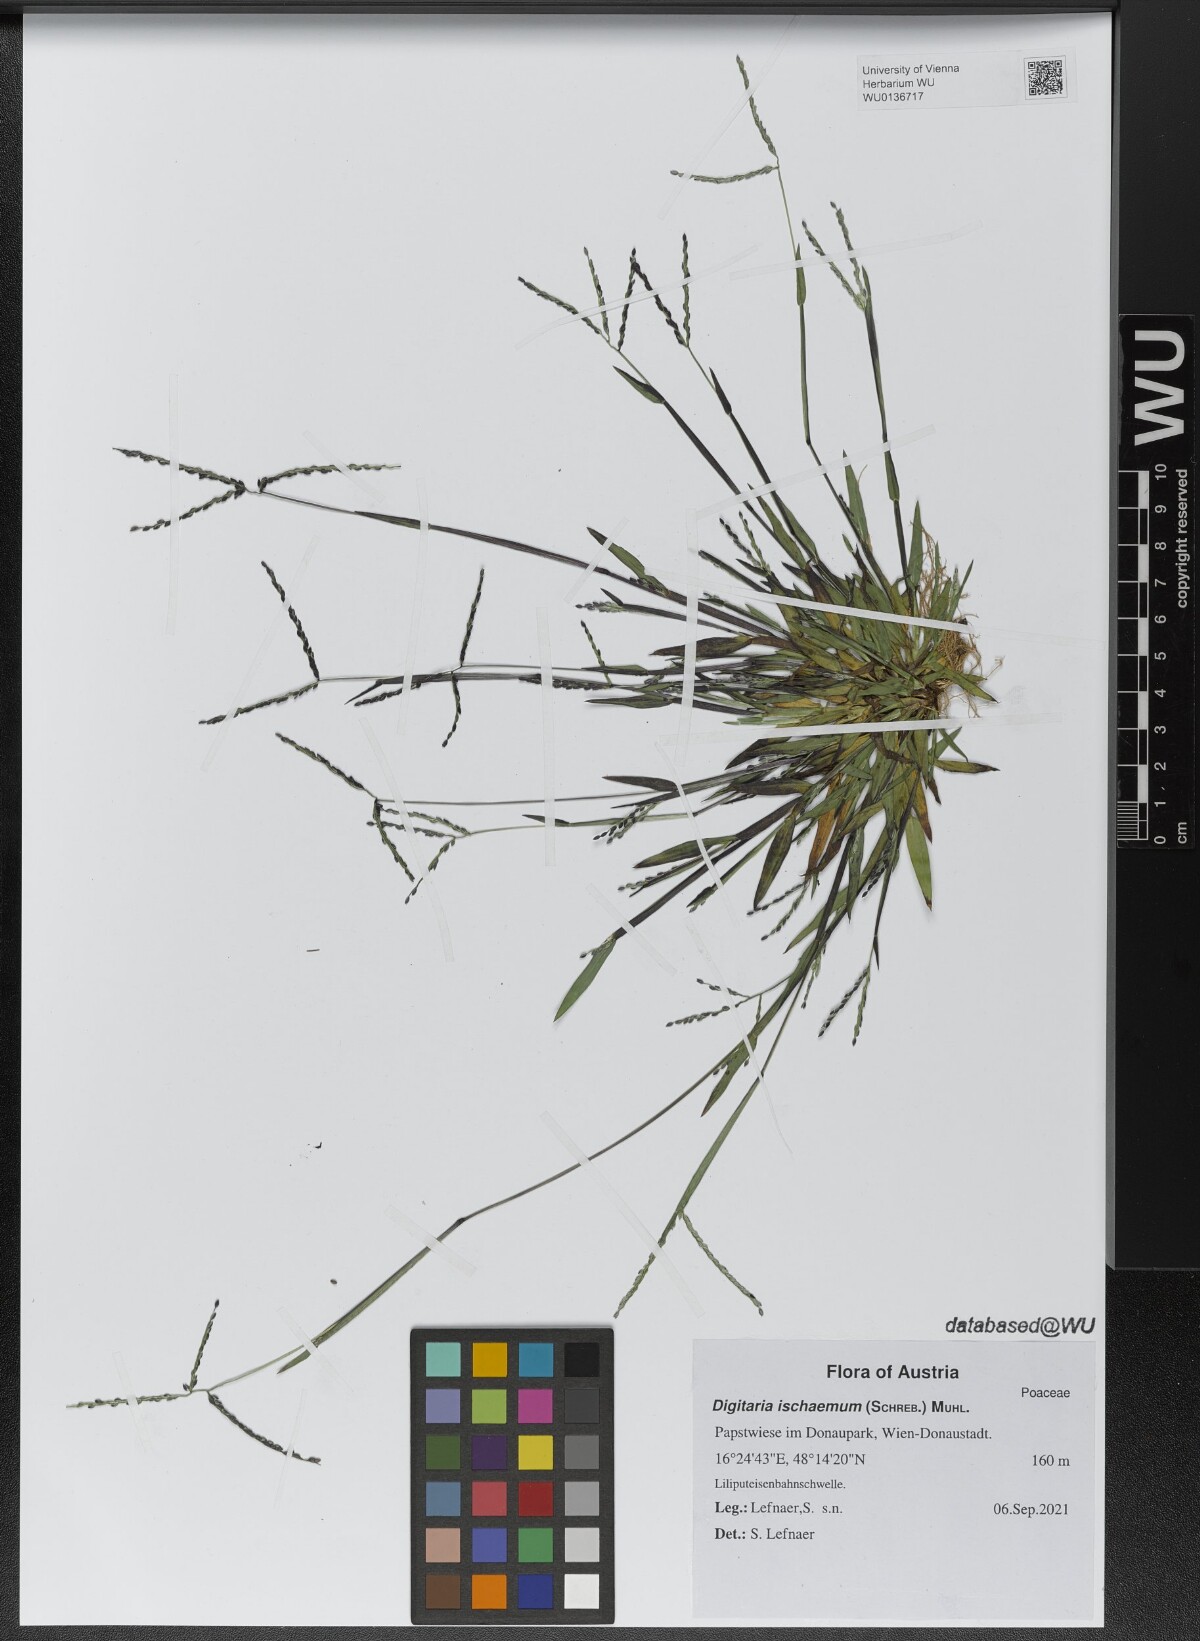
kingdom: Plantae
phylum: Tracheophyta
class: Liliopsida
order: Poales
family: Poaceae
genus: Digitaria
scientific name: Digitaria ischaemum
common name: Smooth crabgrass
